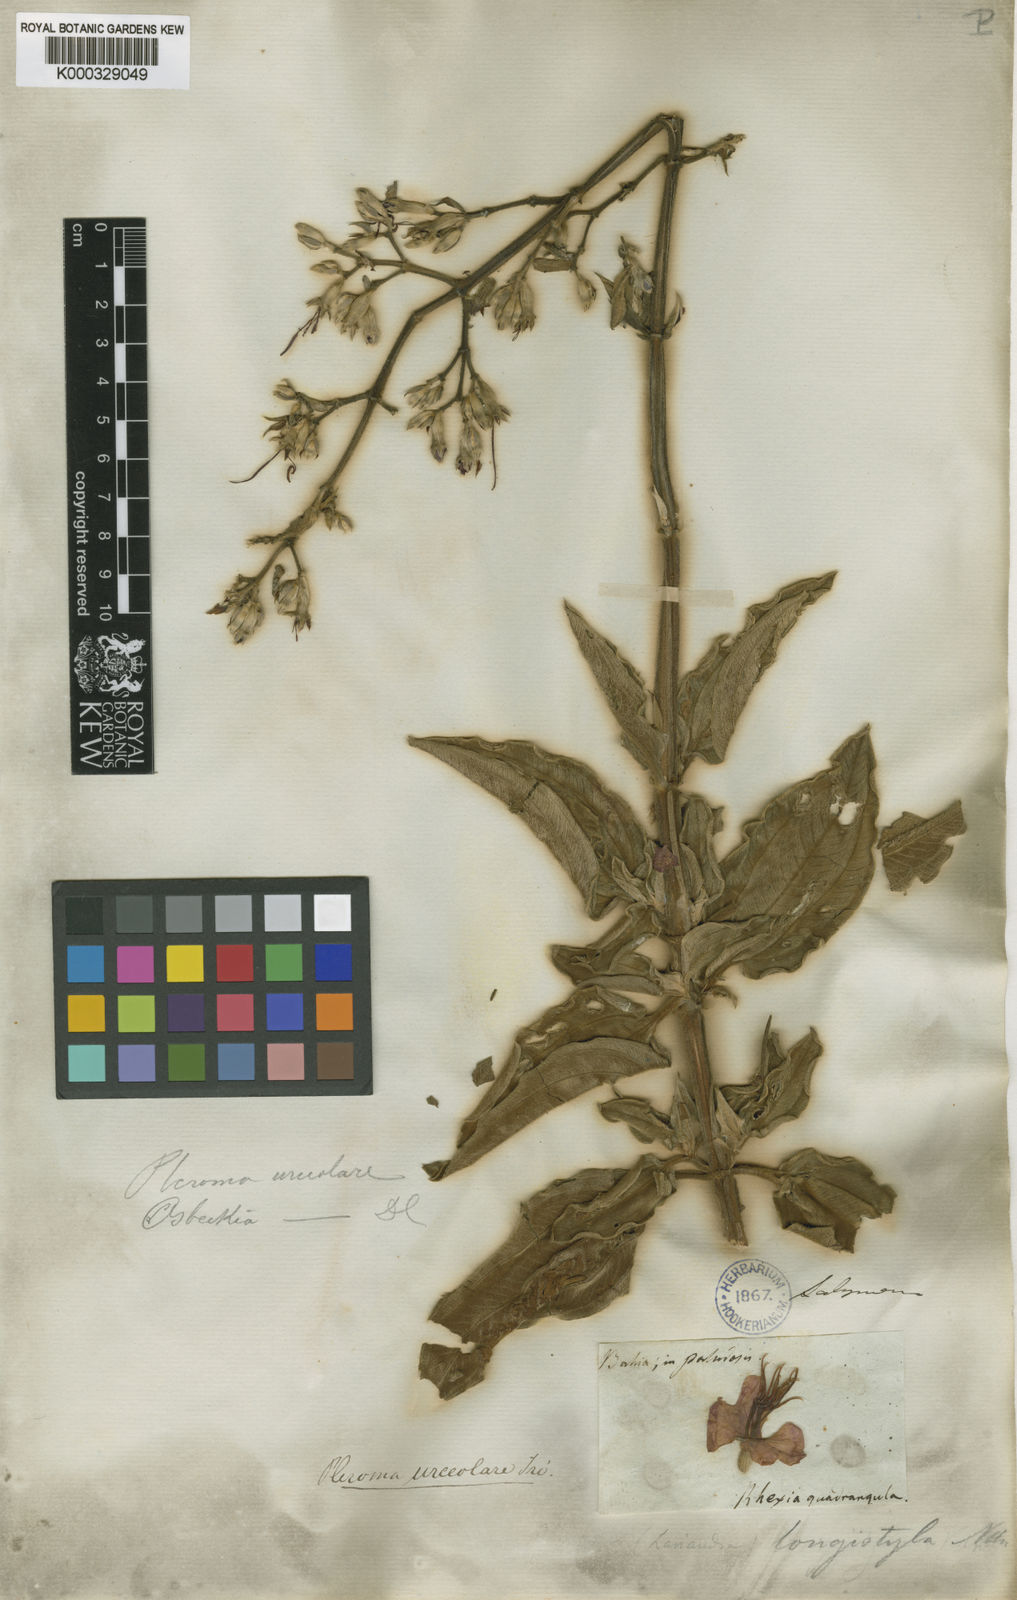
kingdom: Plantae
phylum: Tracheophyta
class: Magnoliopsida
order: Myrtales
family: Melastomataceae
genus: Pleroma
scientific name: Pleroma urceolare
